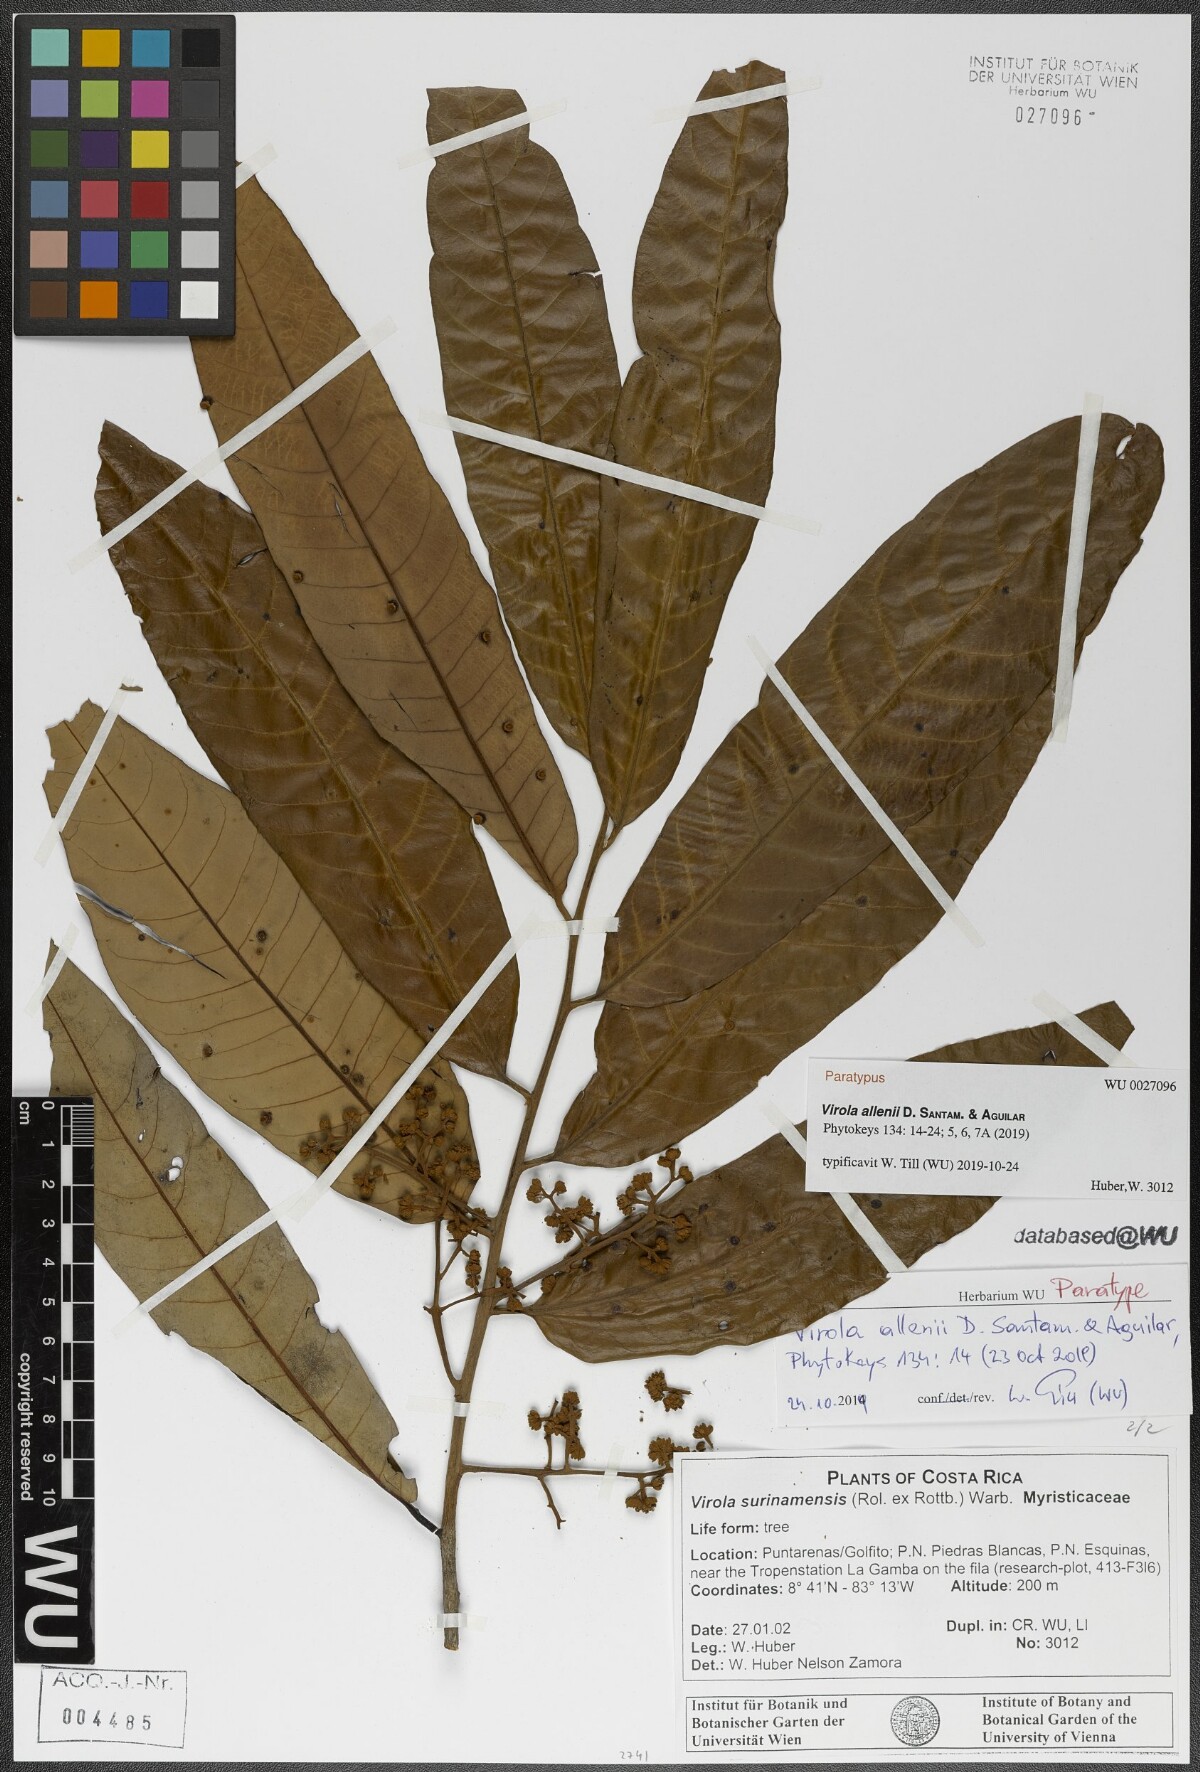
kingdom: Plantae
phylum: Tracheophyta
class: Magnoliopsida
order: Magnoliales
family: Myristicaceae
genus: Virola
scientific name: Virola allenii
